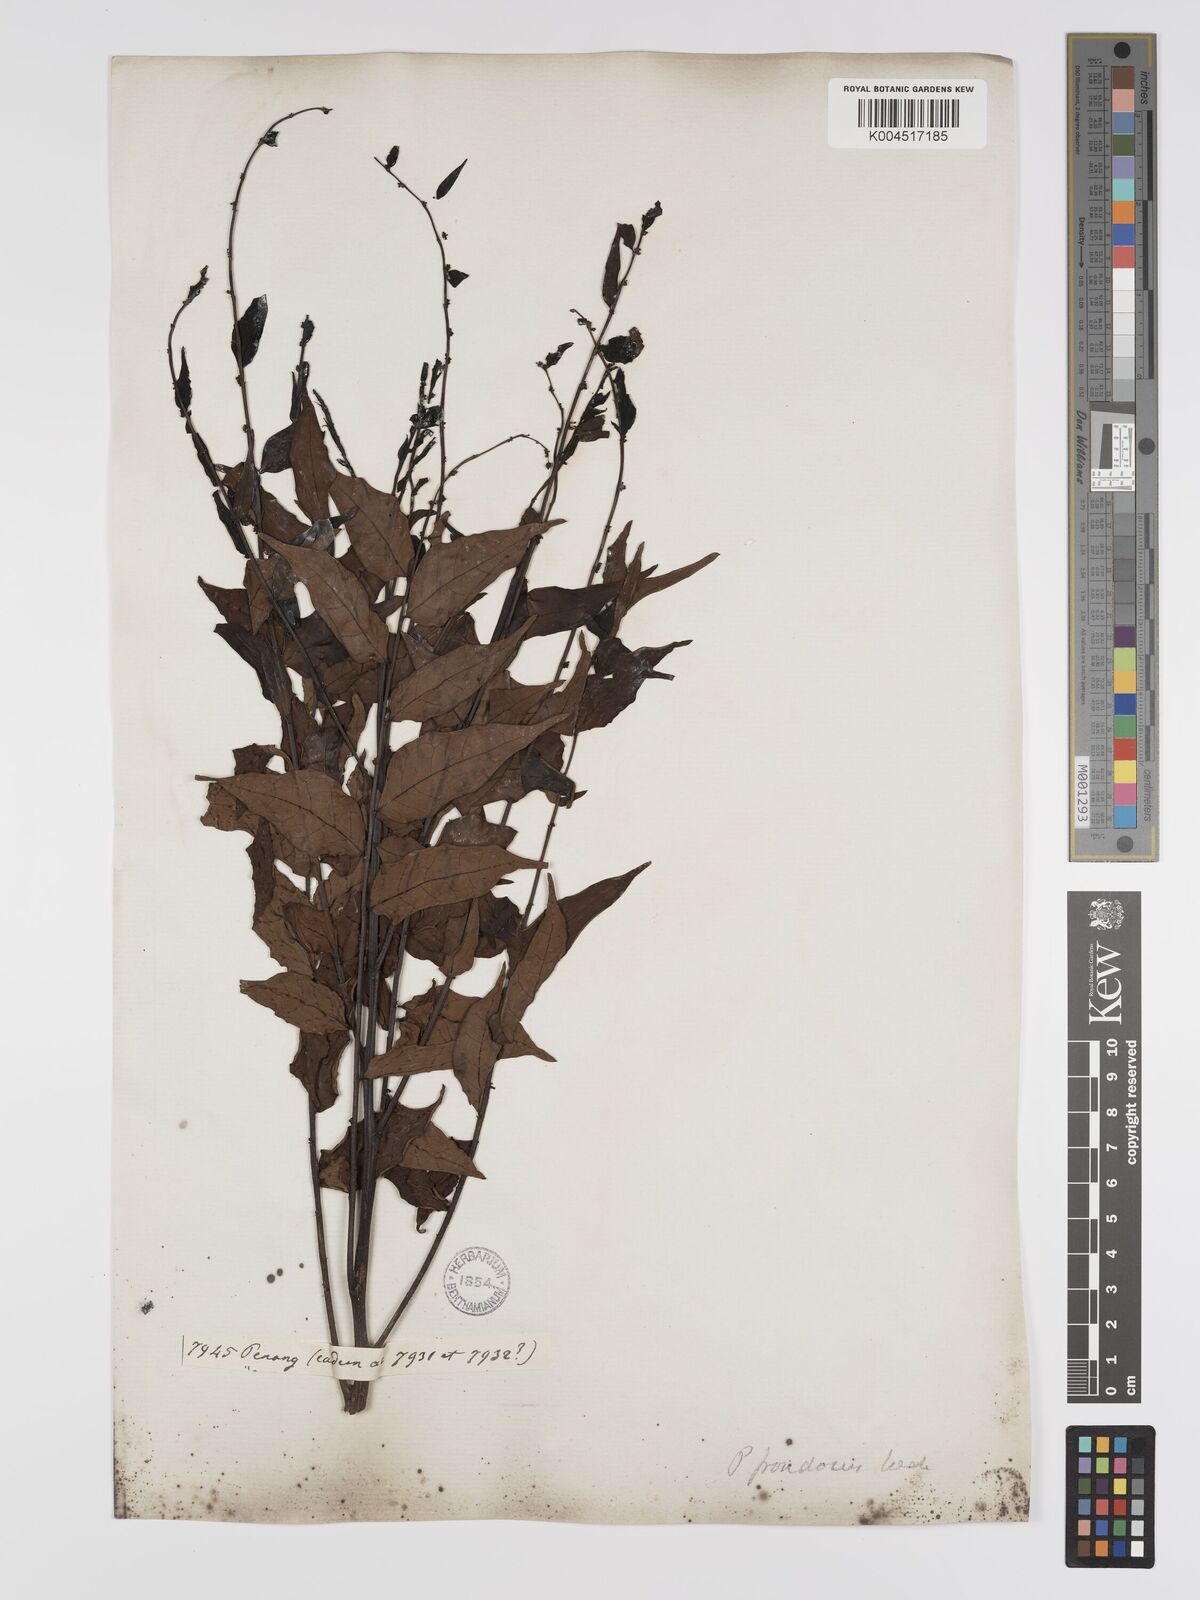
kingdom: Plantae
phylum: Tracheophyta
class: Magnoliopsida
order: Malpighiales
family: Phyllanthaceae
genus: Phyllanthus
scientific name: Phyllanthus
